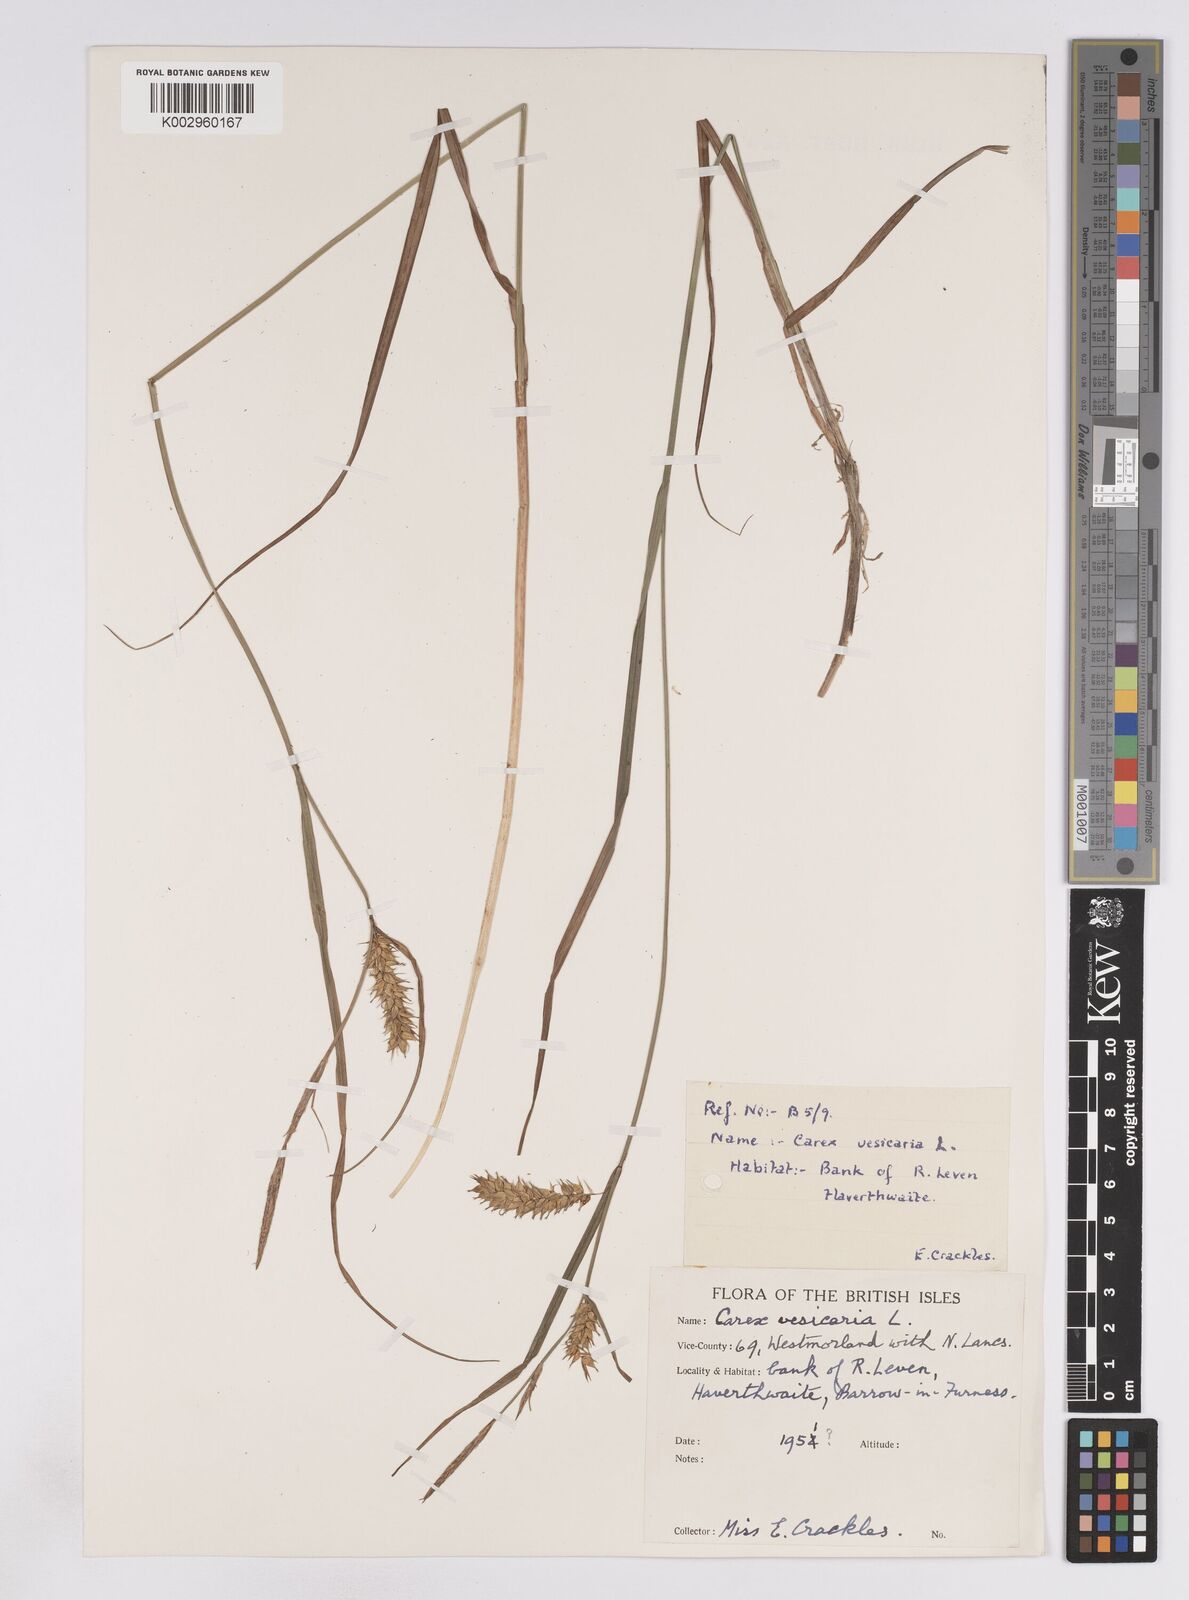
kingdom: Plantae
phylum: Tracheophyta
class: Liliopsida
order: Poales
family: Cyperaceae
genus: Carex
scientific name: Carex vesicaria
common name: Bladder-sedge
